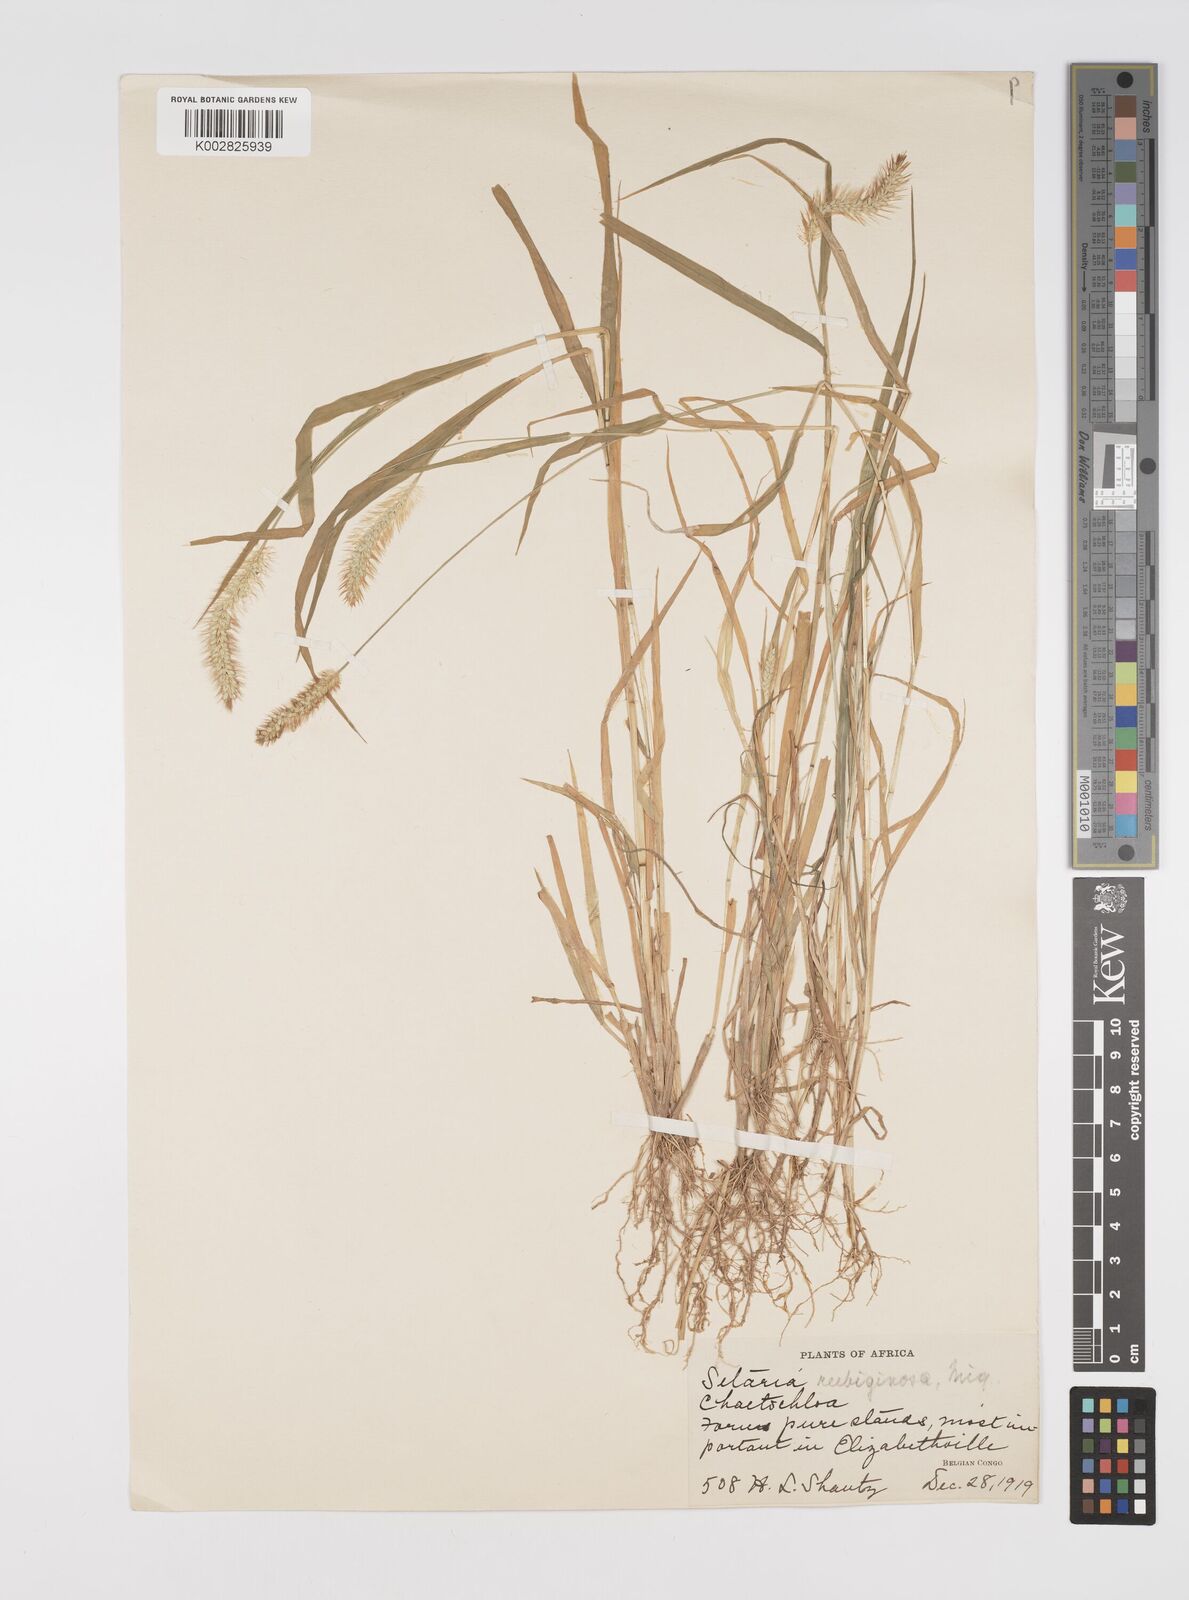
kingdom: Plantae
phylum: Tracheophyta
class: Liliopsida
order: Poales
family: Poaceae
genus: Setaria
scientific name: Setaria pumila
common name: Yellow bristle-grass
